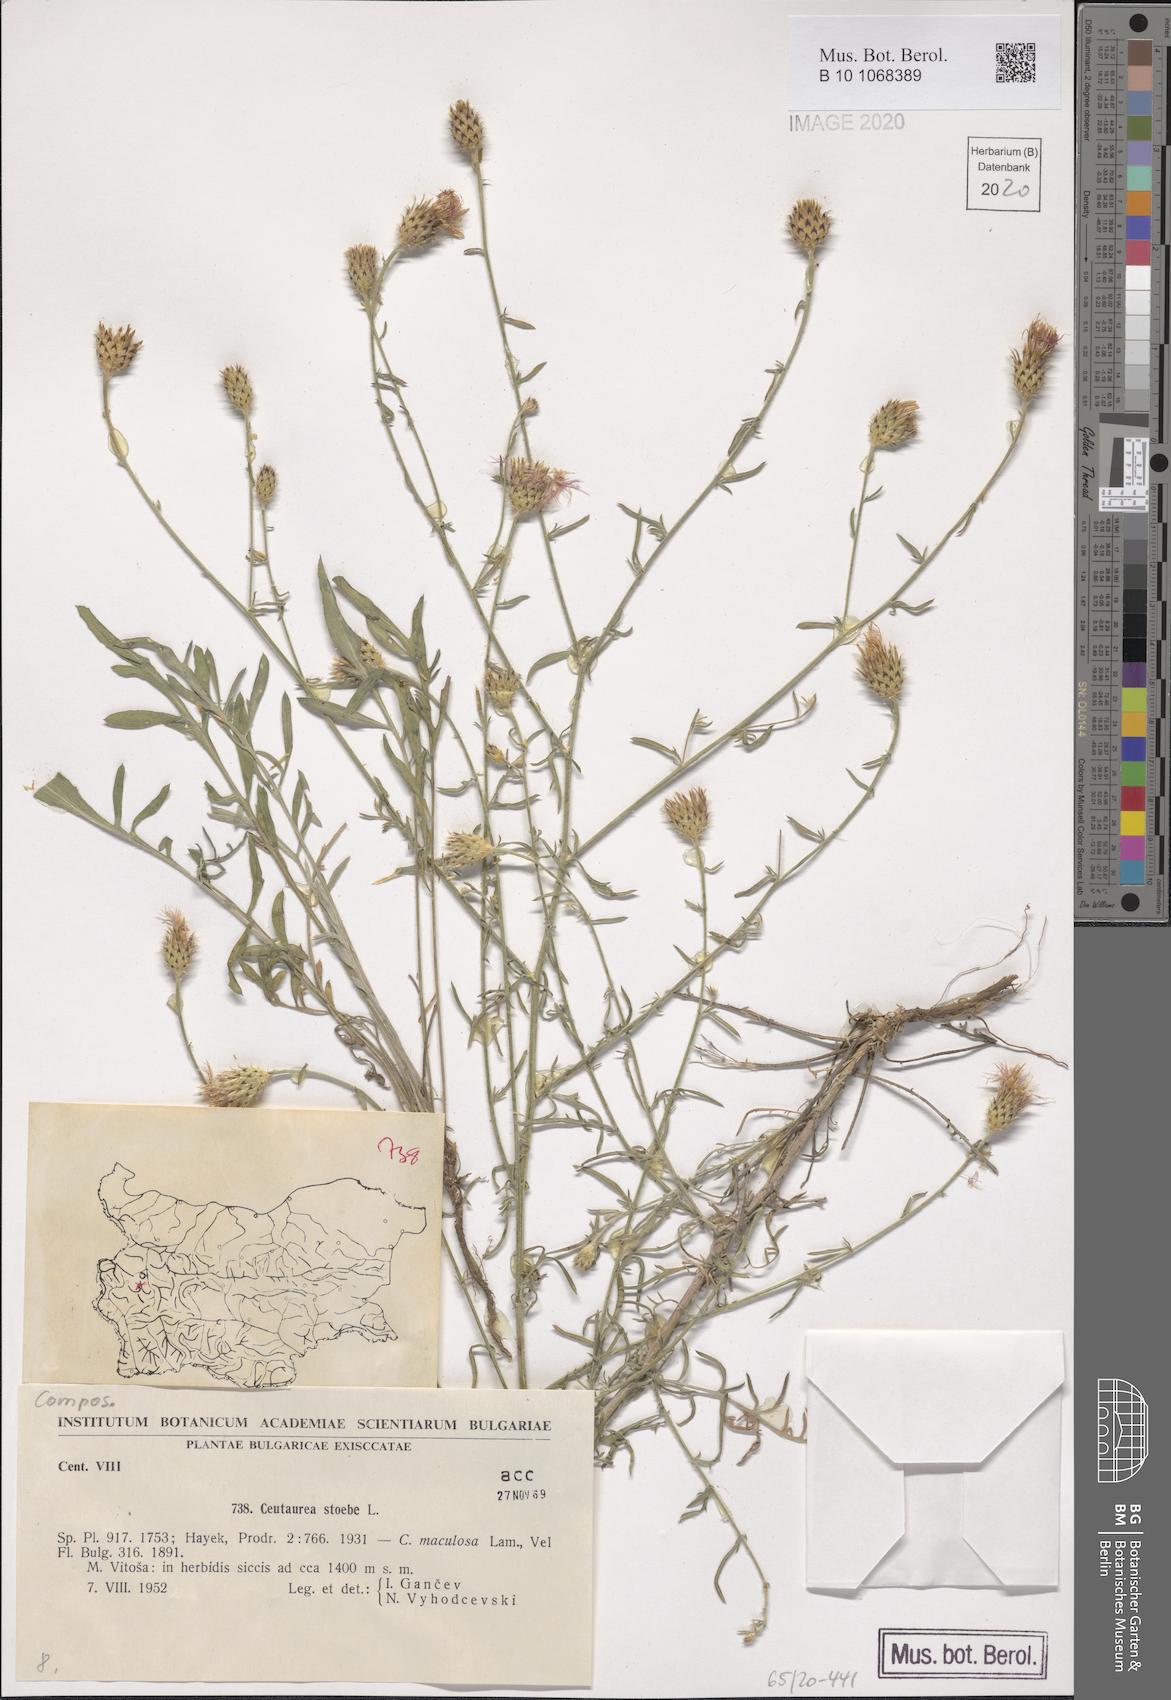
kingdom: Plantae
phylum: Tracheophyta
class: Magnoliopsida
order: Asterales
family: Asteraceae
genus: Centaurea
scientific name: Centaurea stoebe
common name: Spotted knapweed
